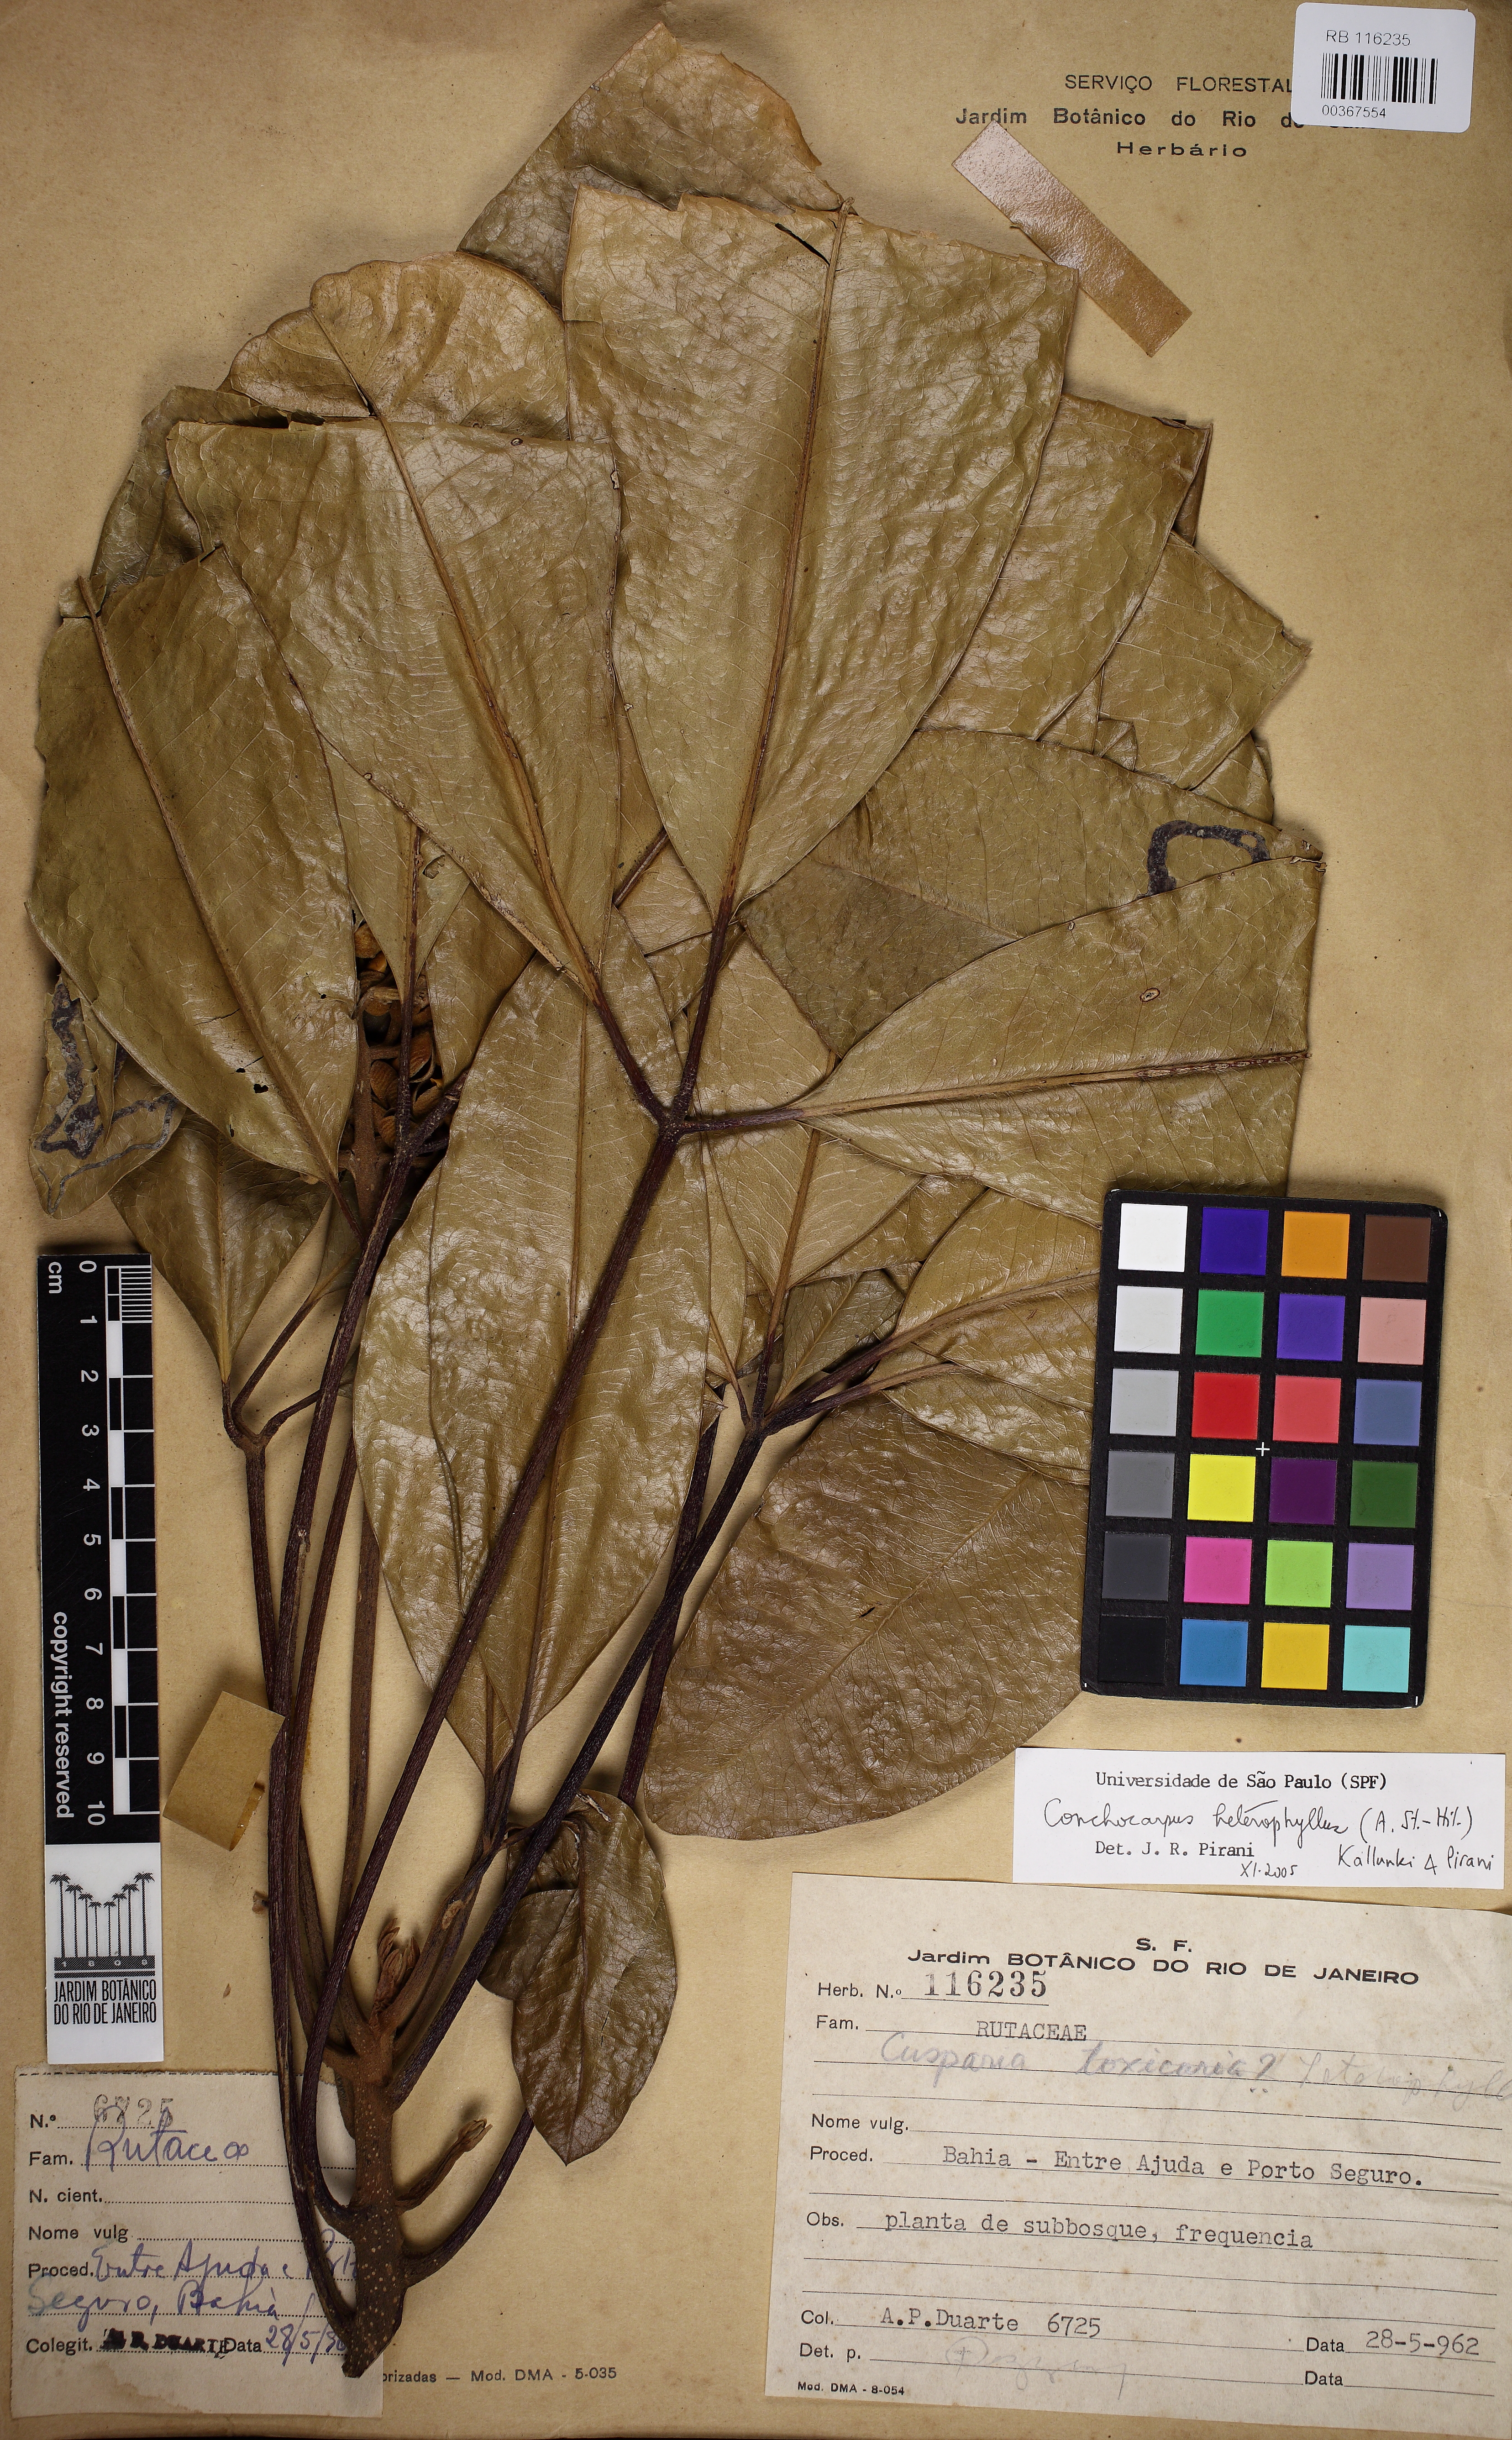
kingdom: Plantae
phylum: Tracheophyta
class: Magnoliopsida
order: Sapindales
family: Rutaceae
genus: Conchocarpus
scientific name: Conchocarpus heterophyllus
